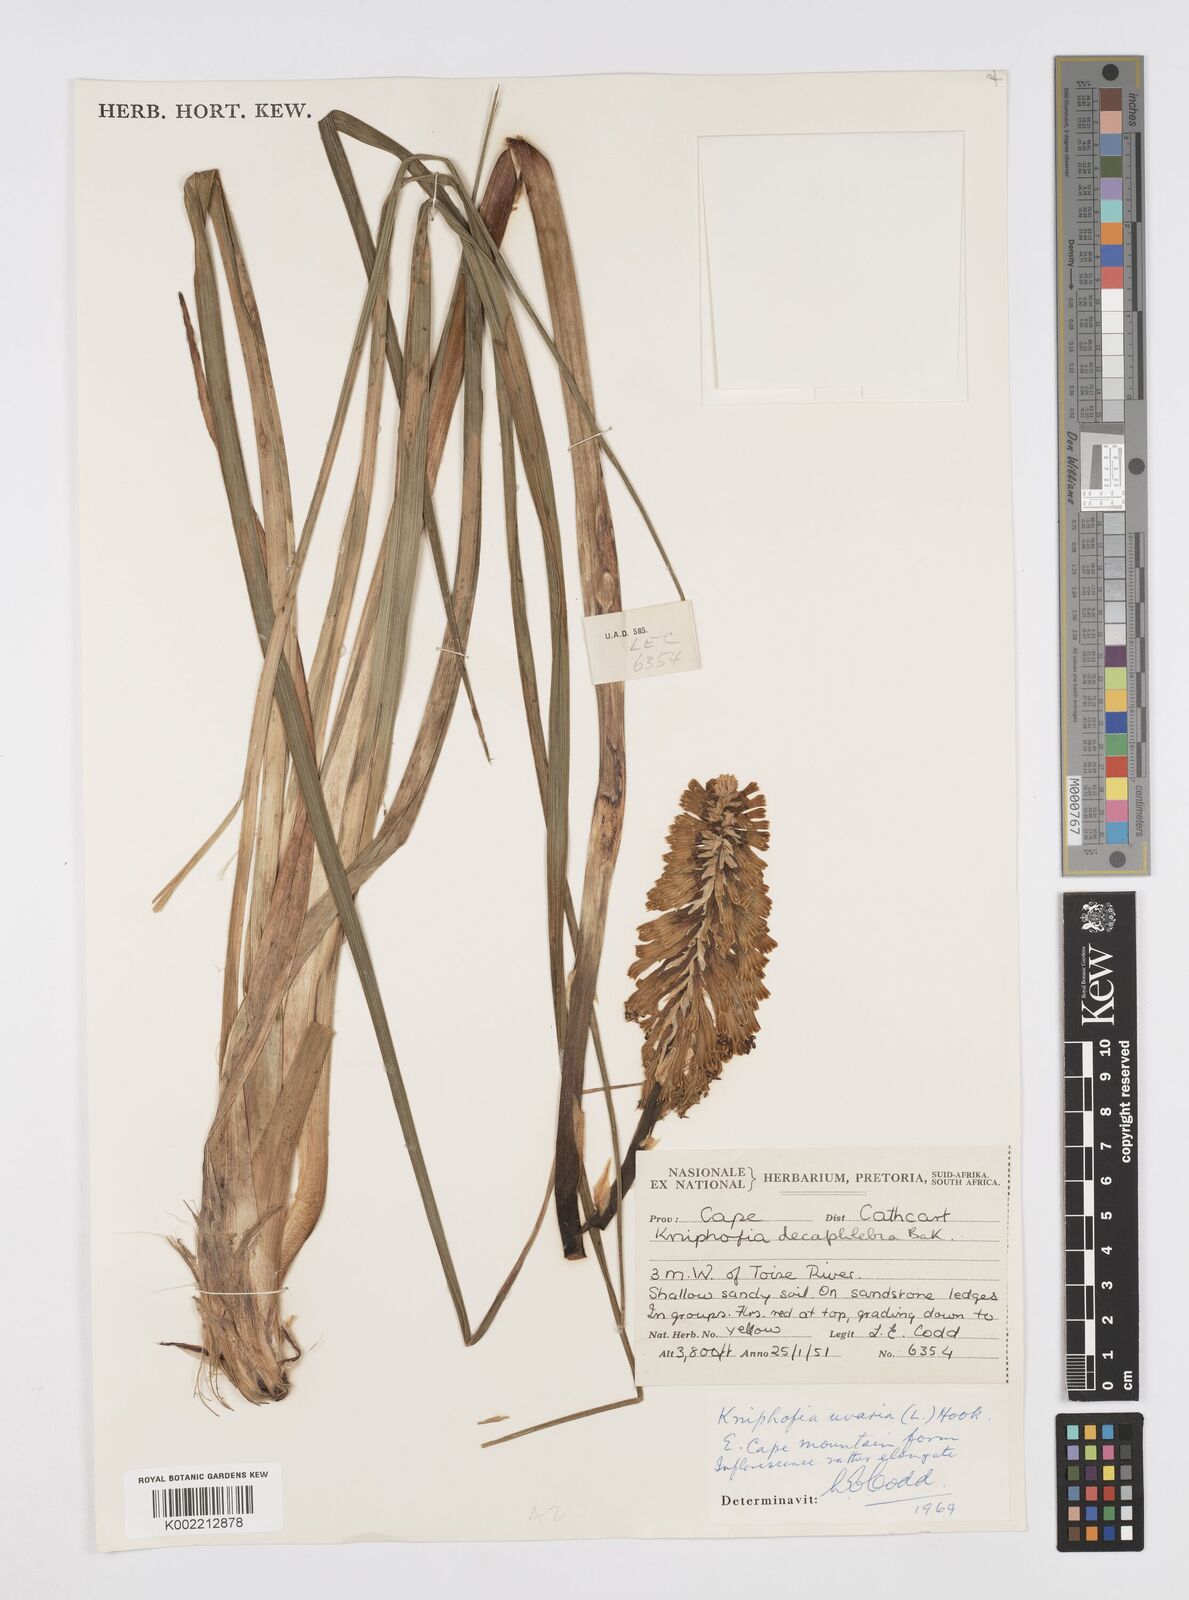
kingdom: Plantae
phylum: Tracheophyta
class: Liliopsida
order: Asparagales
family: Asphodelaceae
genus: Kniphofia
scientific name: Kniphofia uvaria
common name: Red-hot-poker
